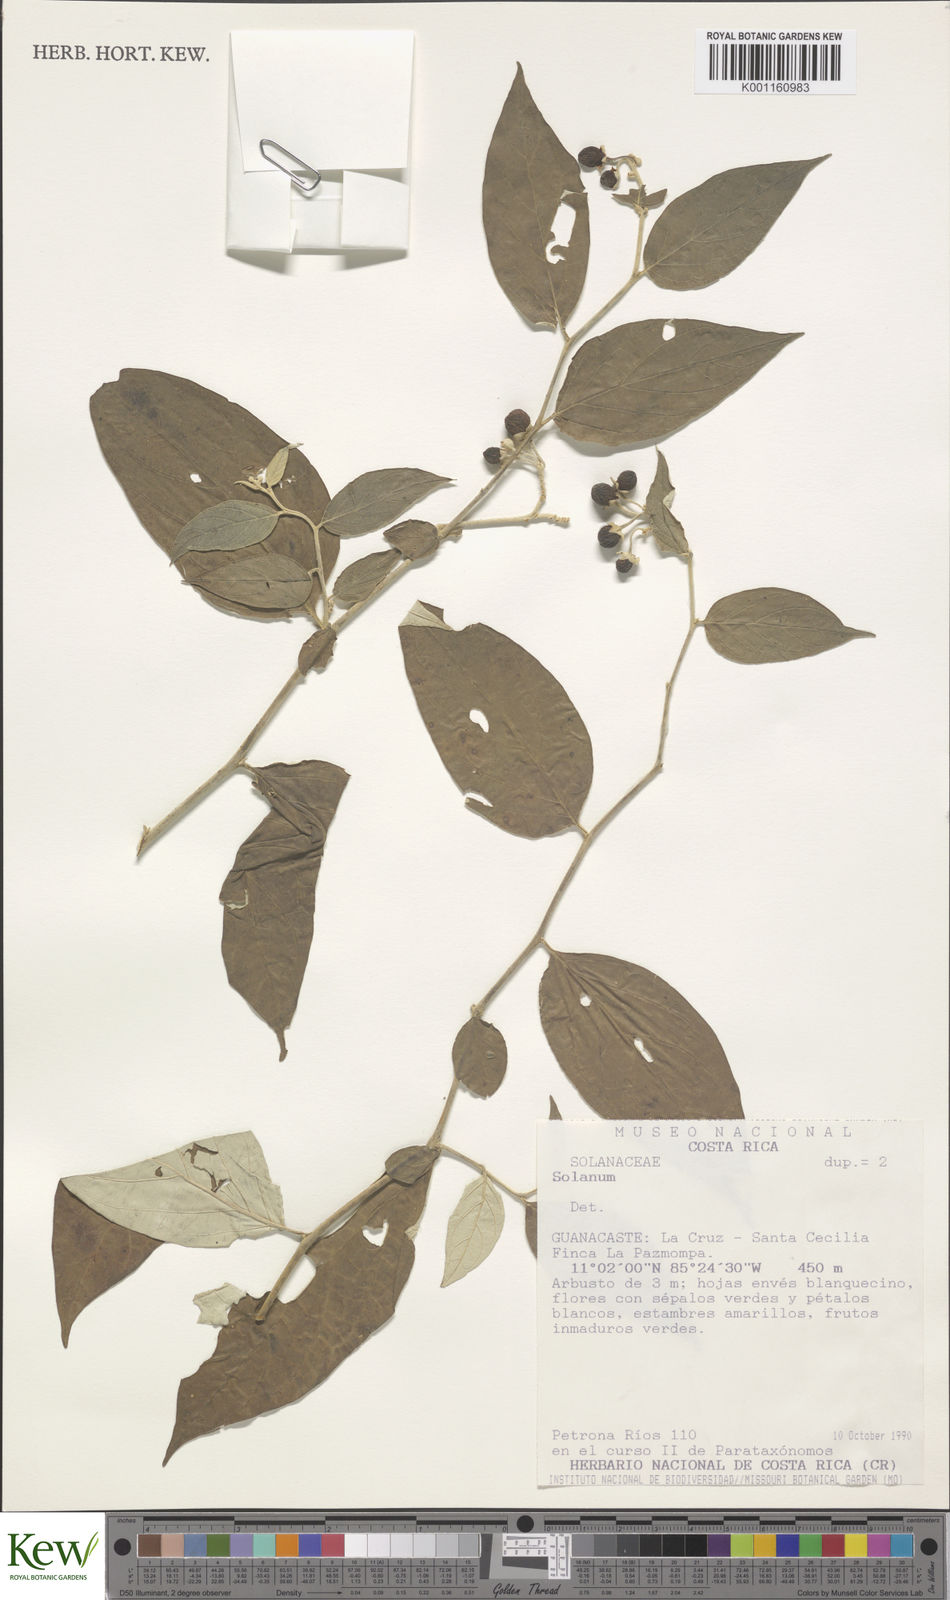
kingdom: Plantae
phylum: Tracheophyta
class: Magnoliopsida
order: Solanales
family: Solanaceae
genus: Solanum
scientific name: Solanum
